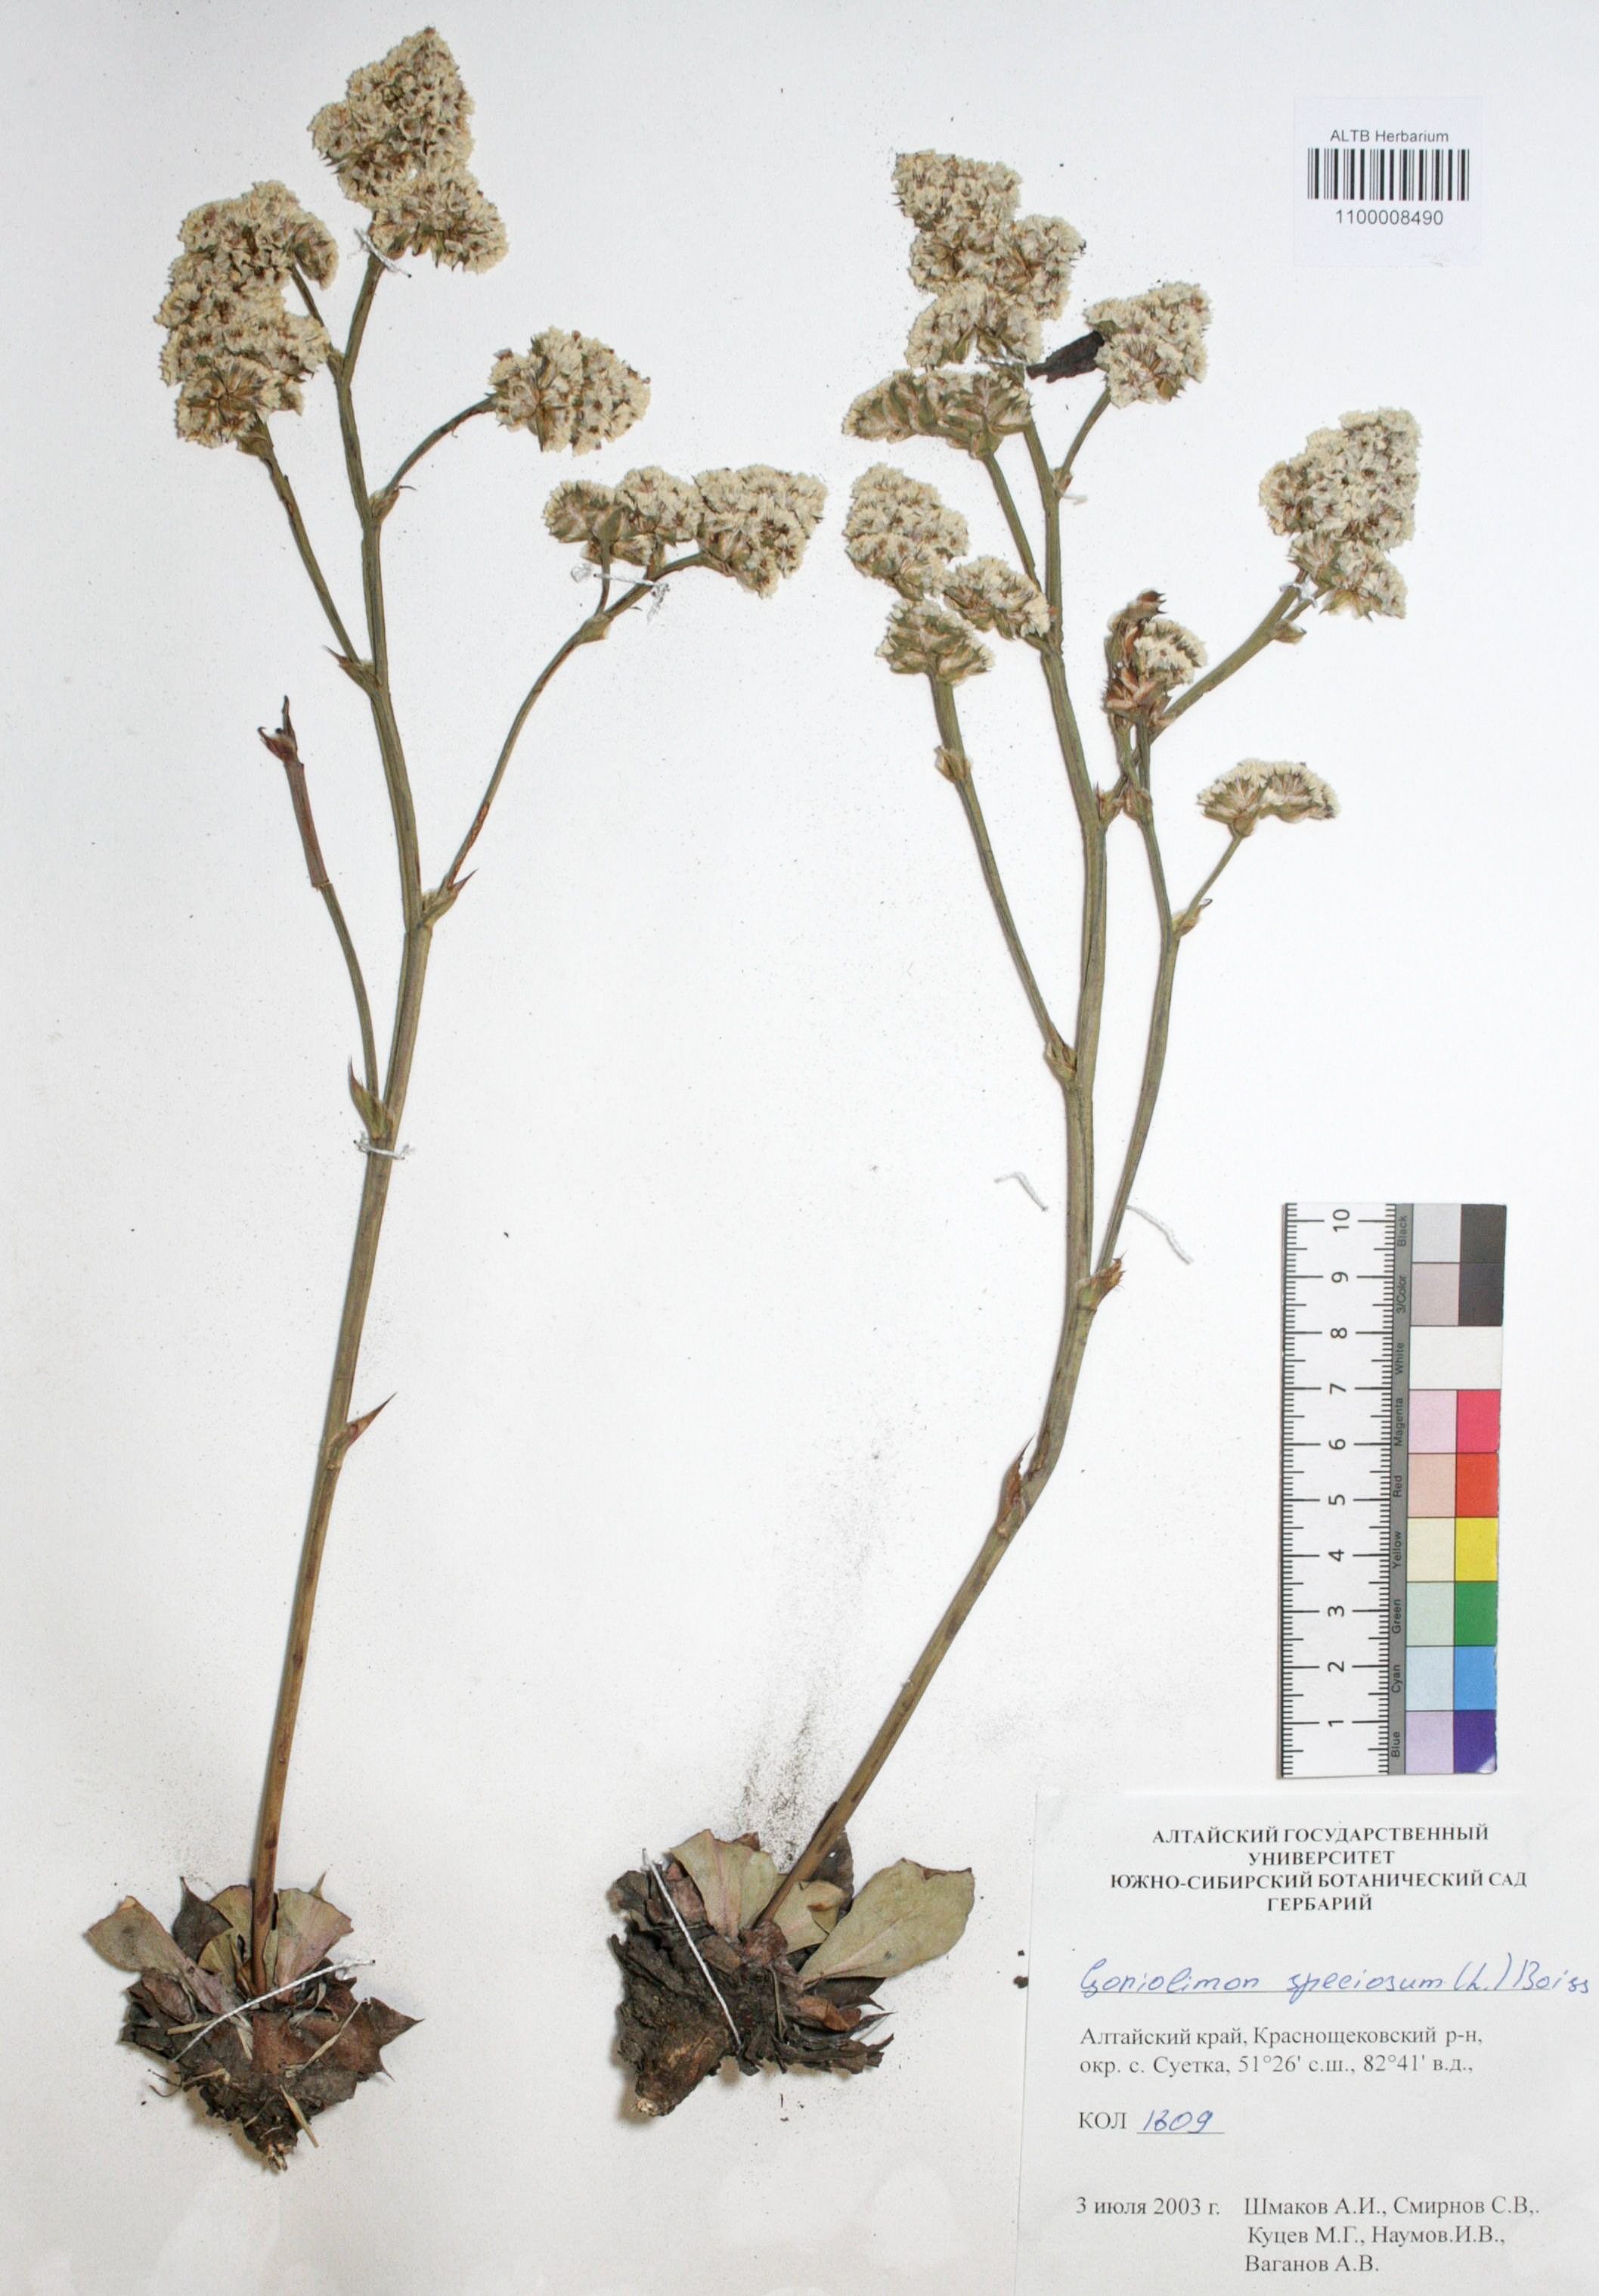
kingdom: Plantae
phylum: Tracheophyta
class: Magnoliopsida
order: Caryophyllales
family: Plumbaginaceae
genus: Goniolimon
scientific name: Goniolimon speciosum
